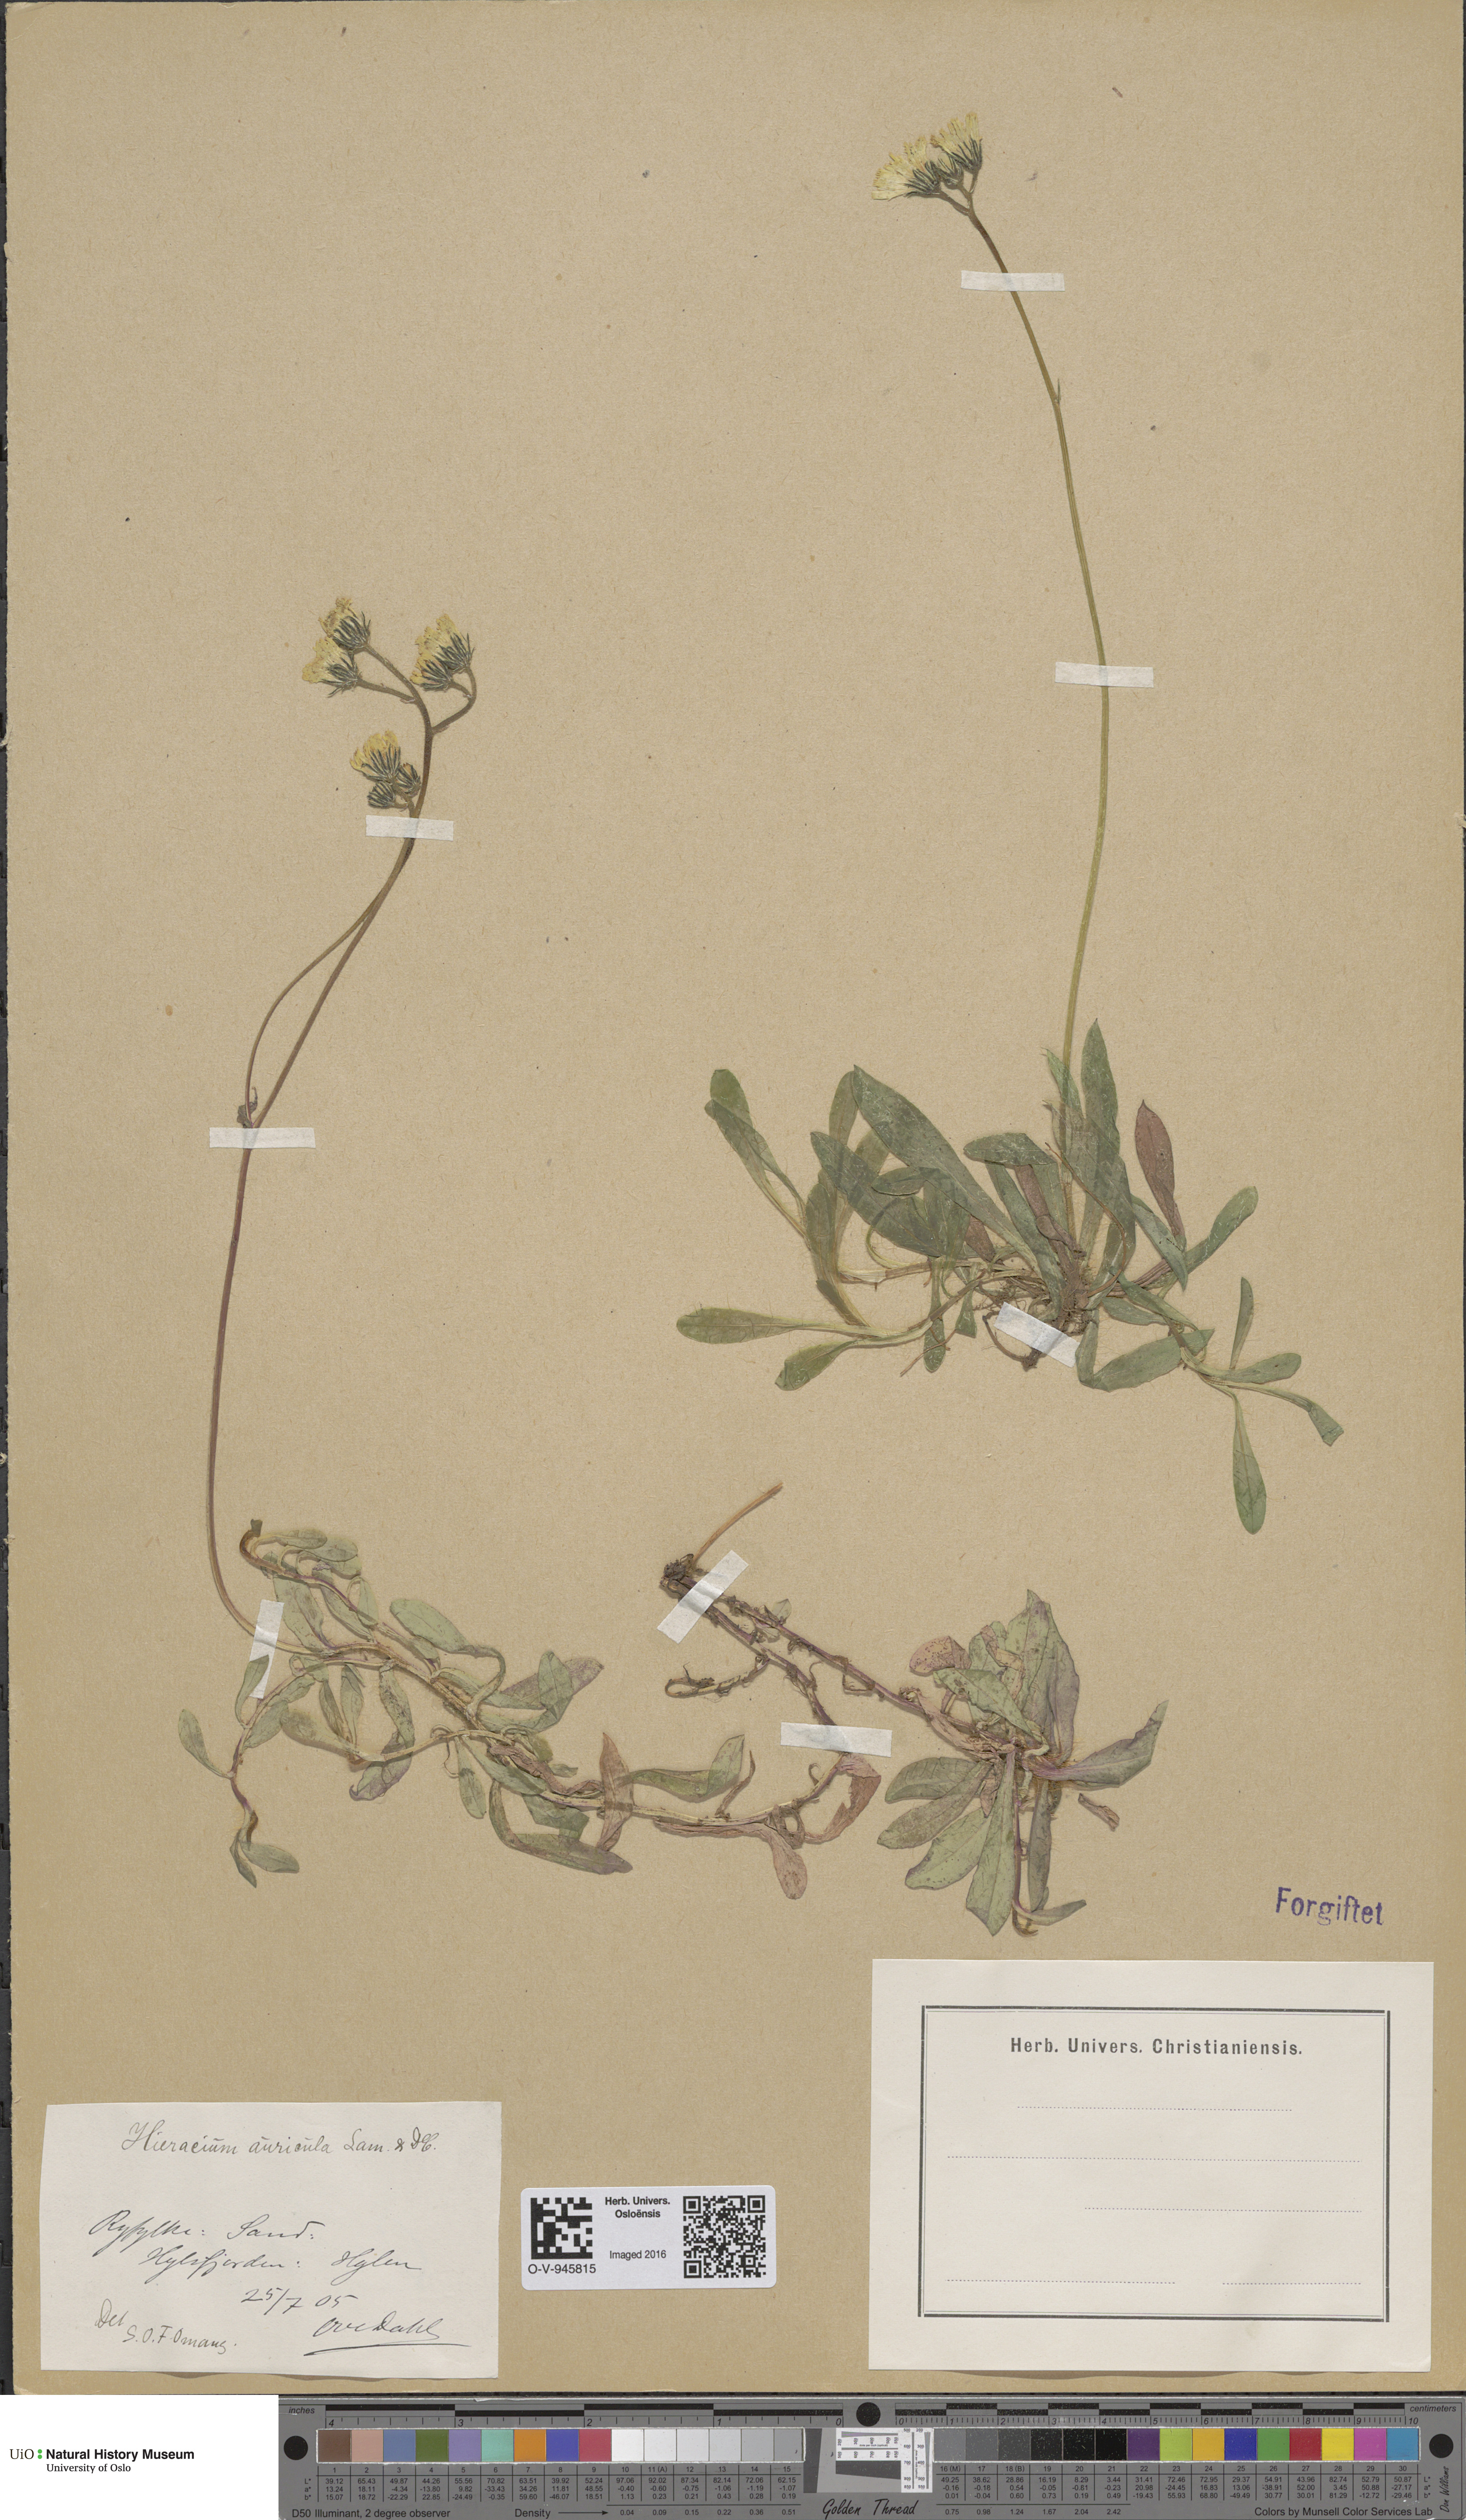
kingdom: Plantae
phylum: Tracheophyta
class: Magnoliopsida
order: Asterales
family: Asteraceae
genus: Pilosella
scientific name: Pilosella lactucella
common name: Glaucous fox-and-cubs
